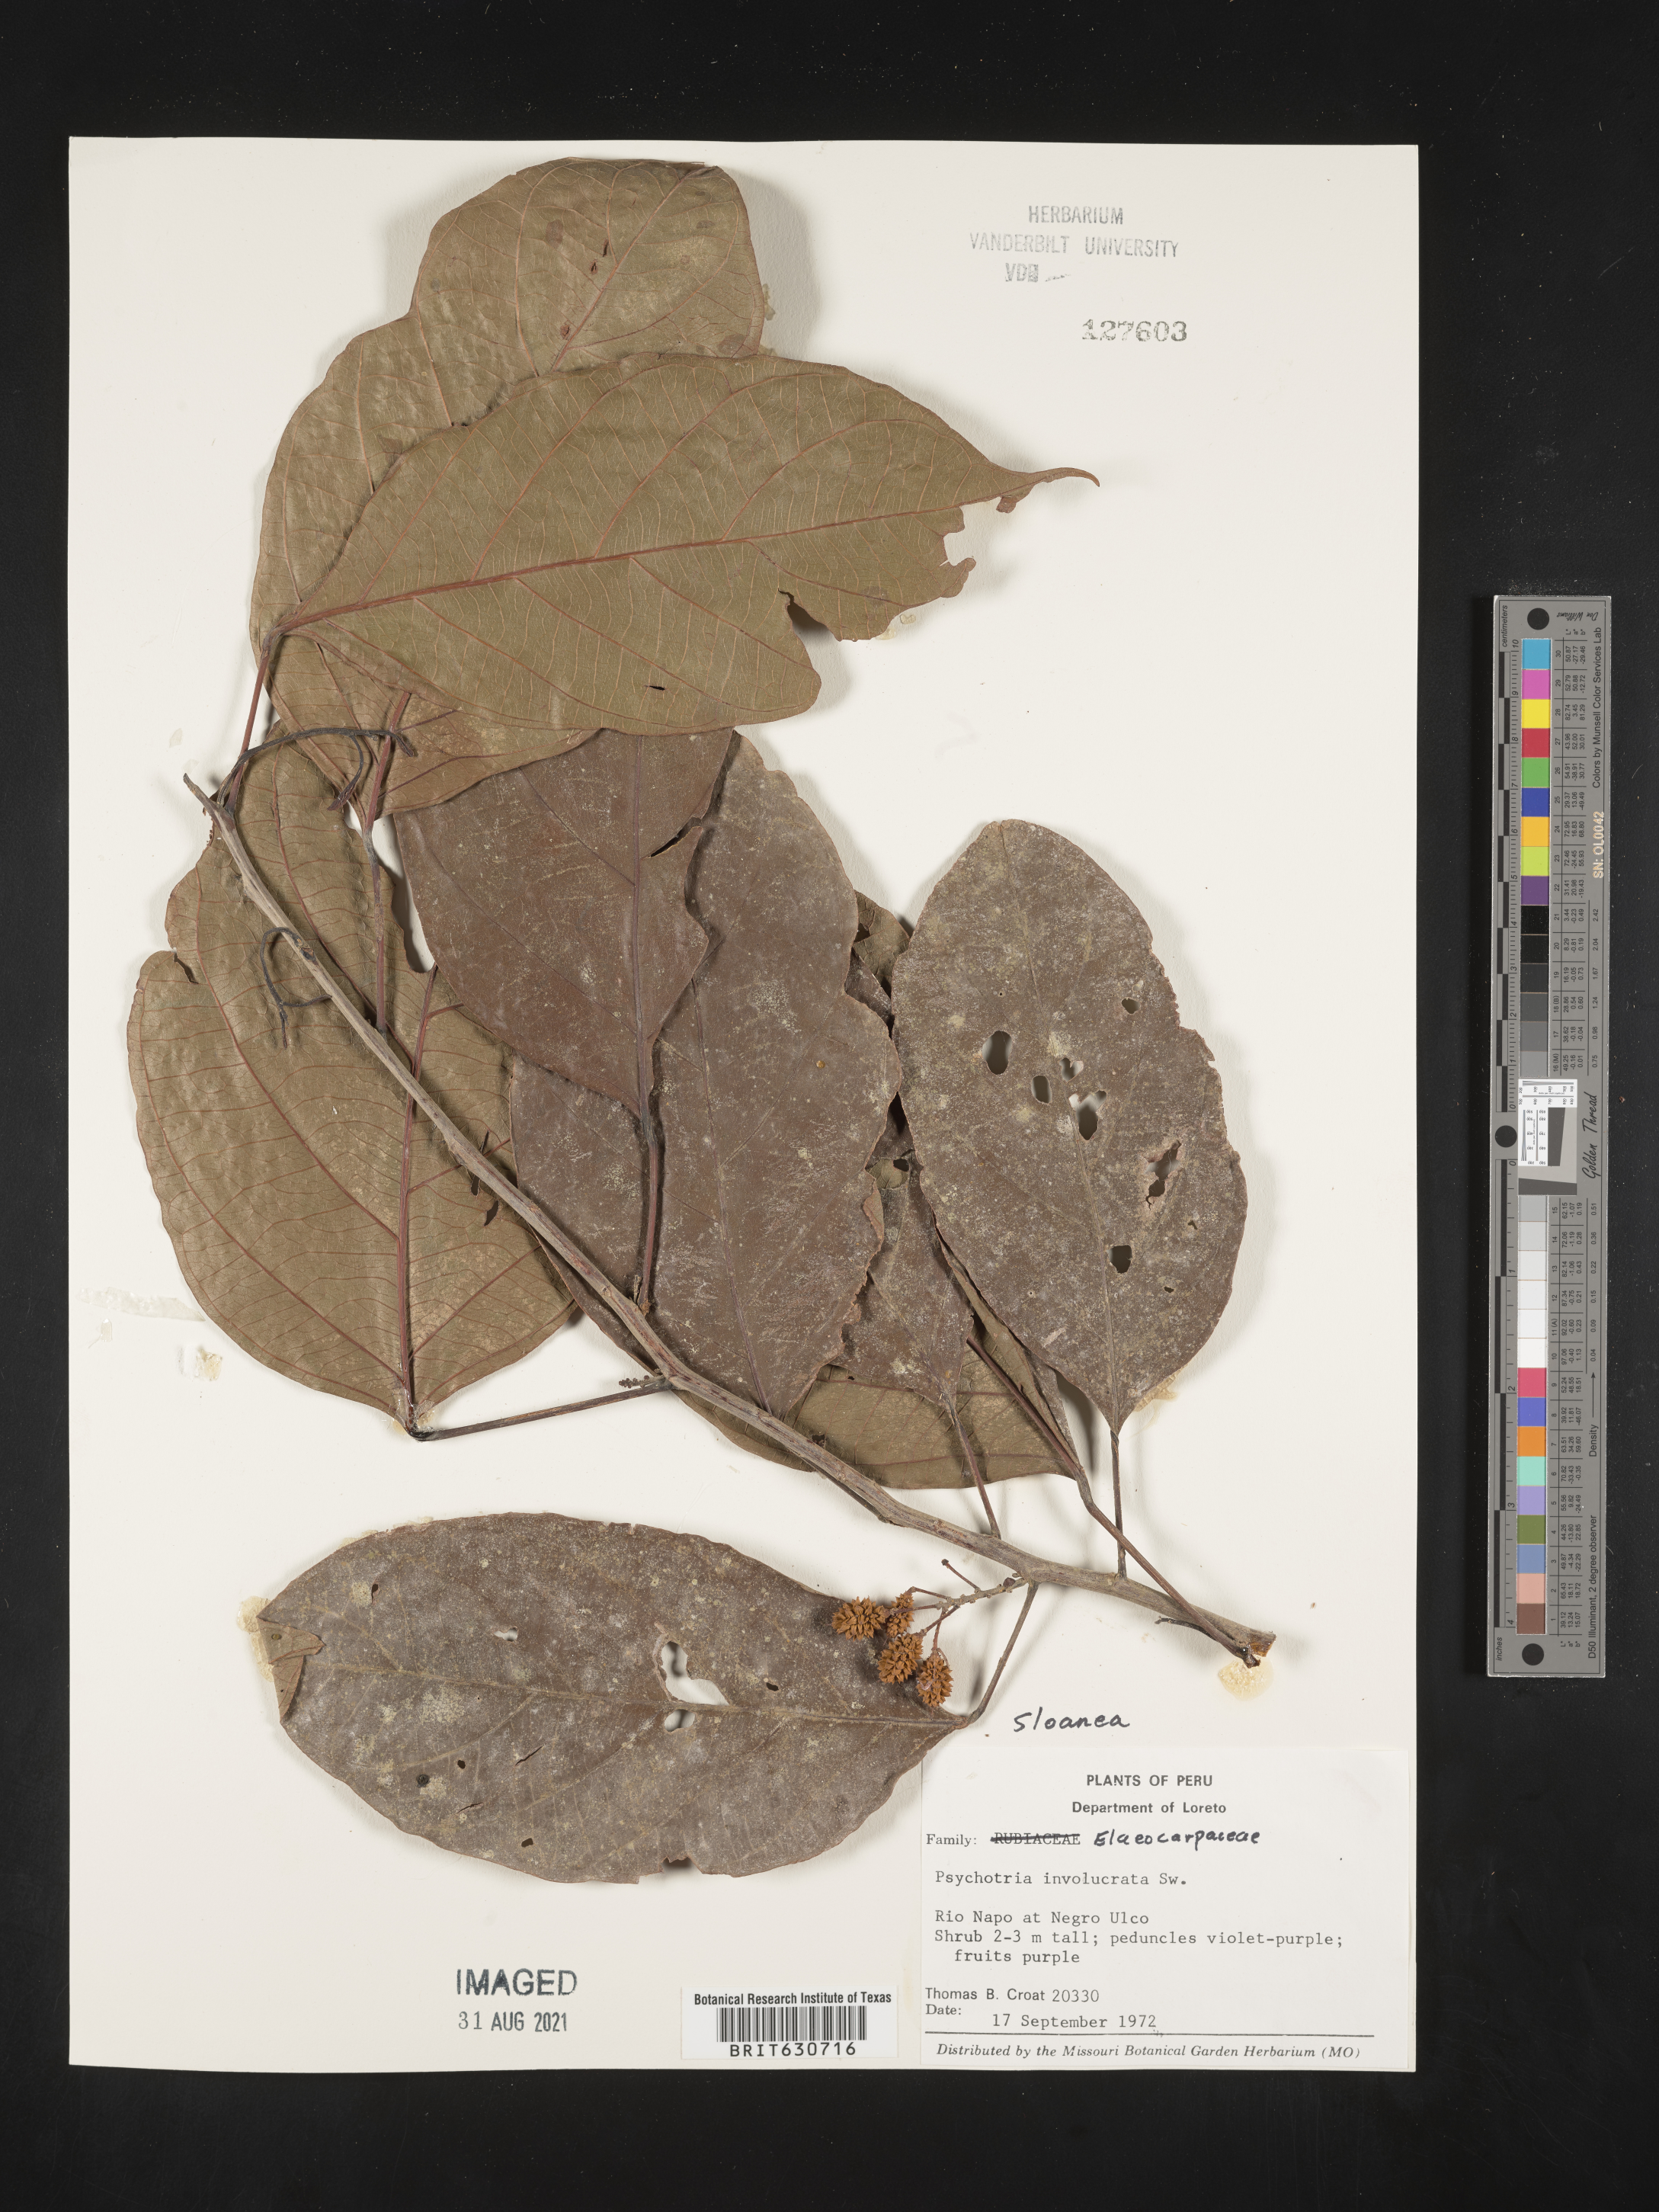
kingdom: Plantae
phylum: Tracheophyta
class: Magnoliopsida
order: Oxalidales
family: Elaeocarpaceae
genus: Sloanea
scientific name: Sloanea
